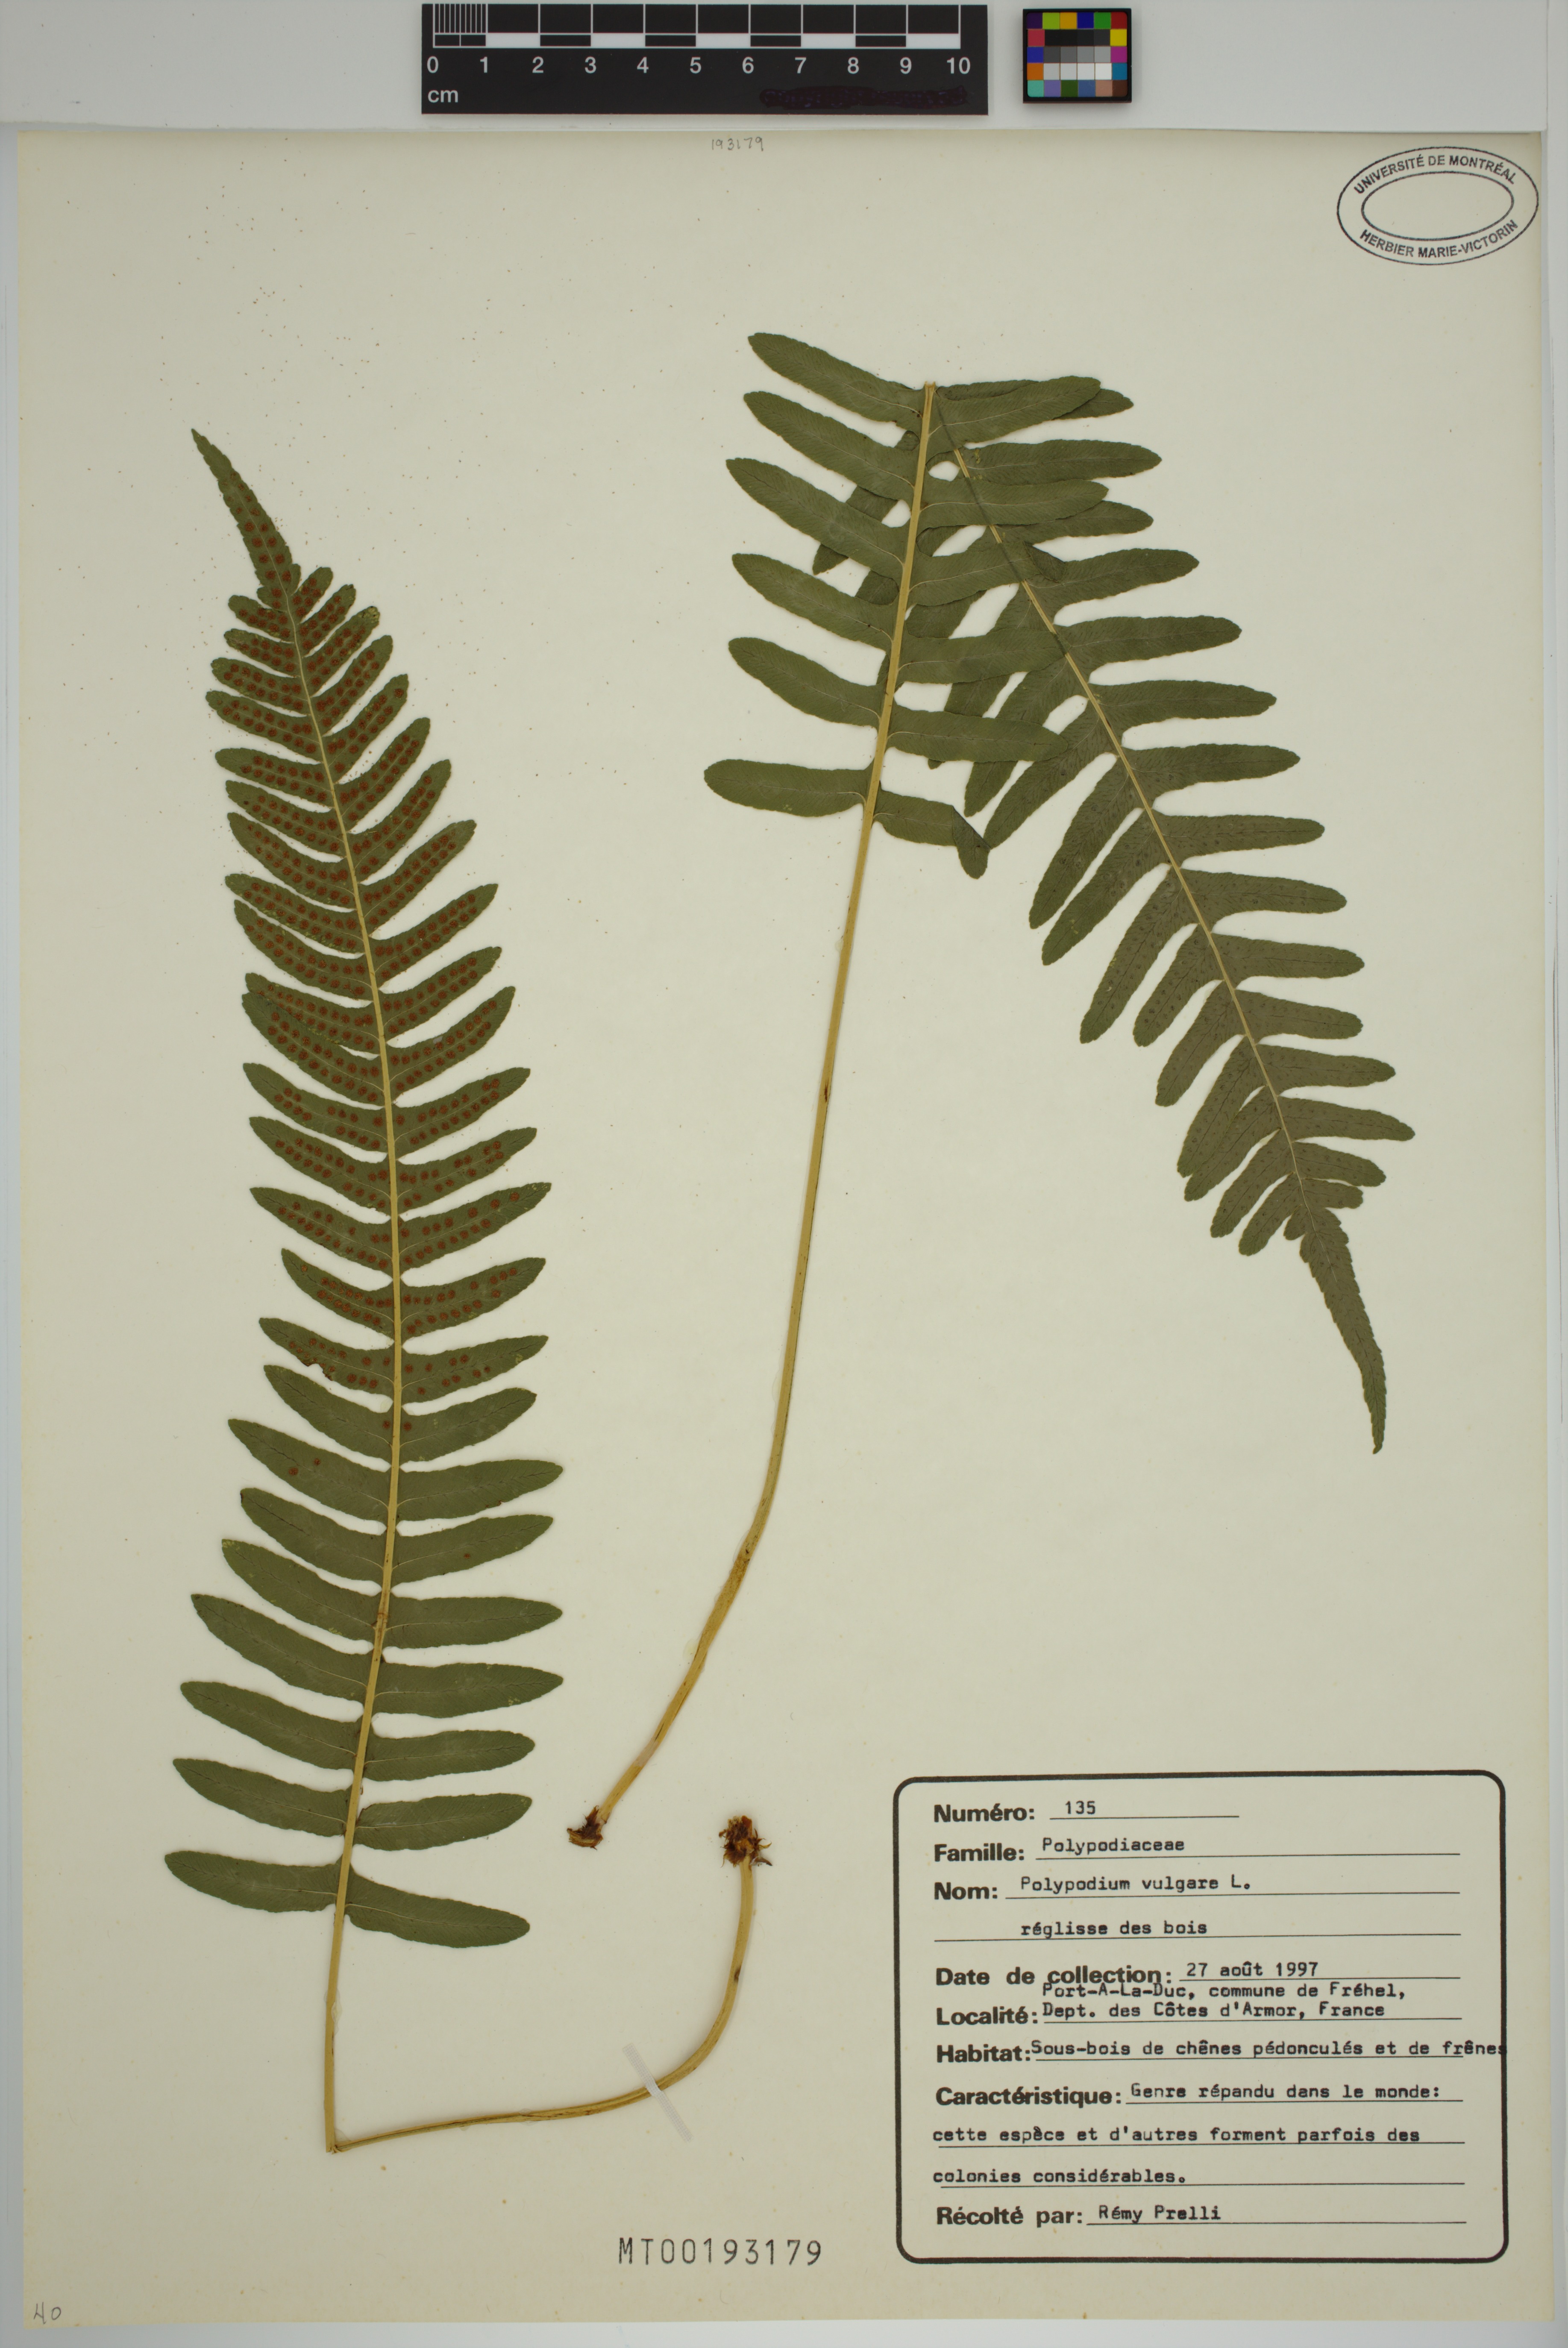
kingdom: Plantae
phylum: Tracheophyta
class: Polypodiopsida
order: Polypodiales
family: Polypodiaceae
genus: Polypodium
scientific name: Polypodium vulgare
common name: Common polypody
